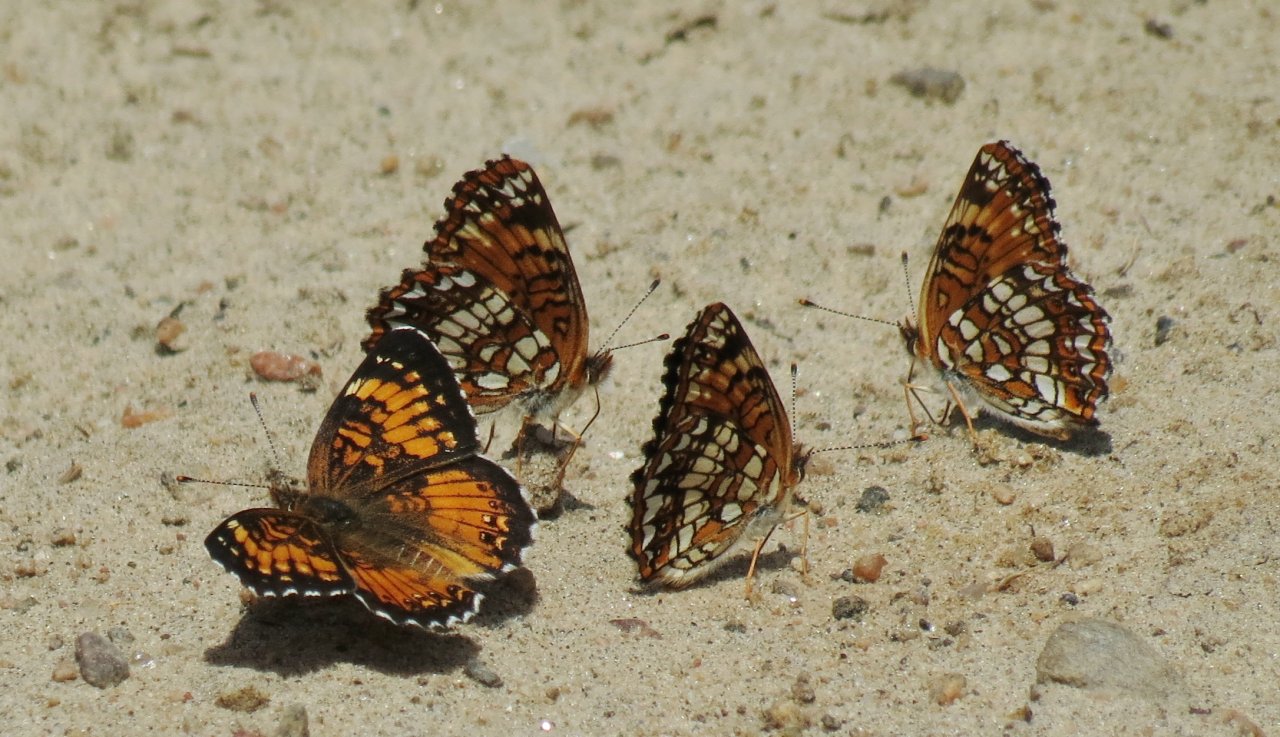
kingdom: Animalia
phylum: Arthropoda
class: Insecta
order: Lepidoptera
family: Nymphalidae
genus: Chlosyne
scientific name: Chlosyne harrisii
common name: Harris's Checkerspot
